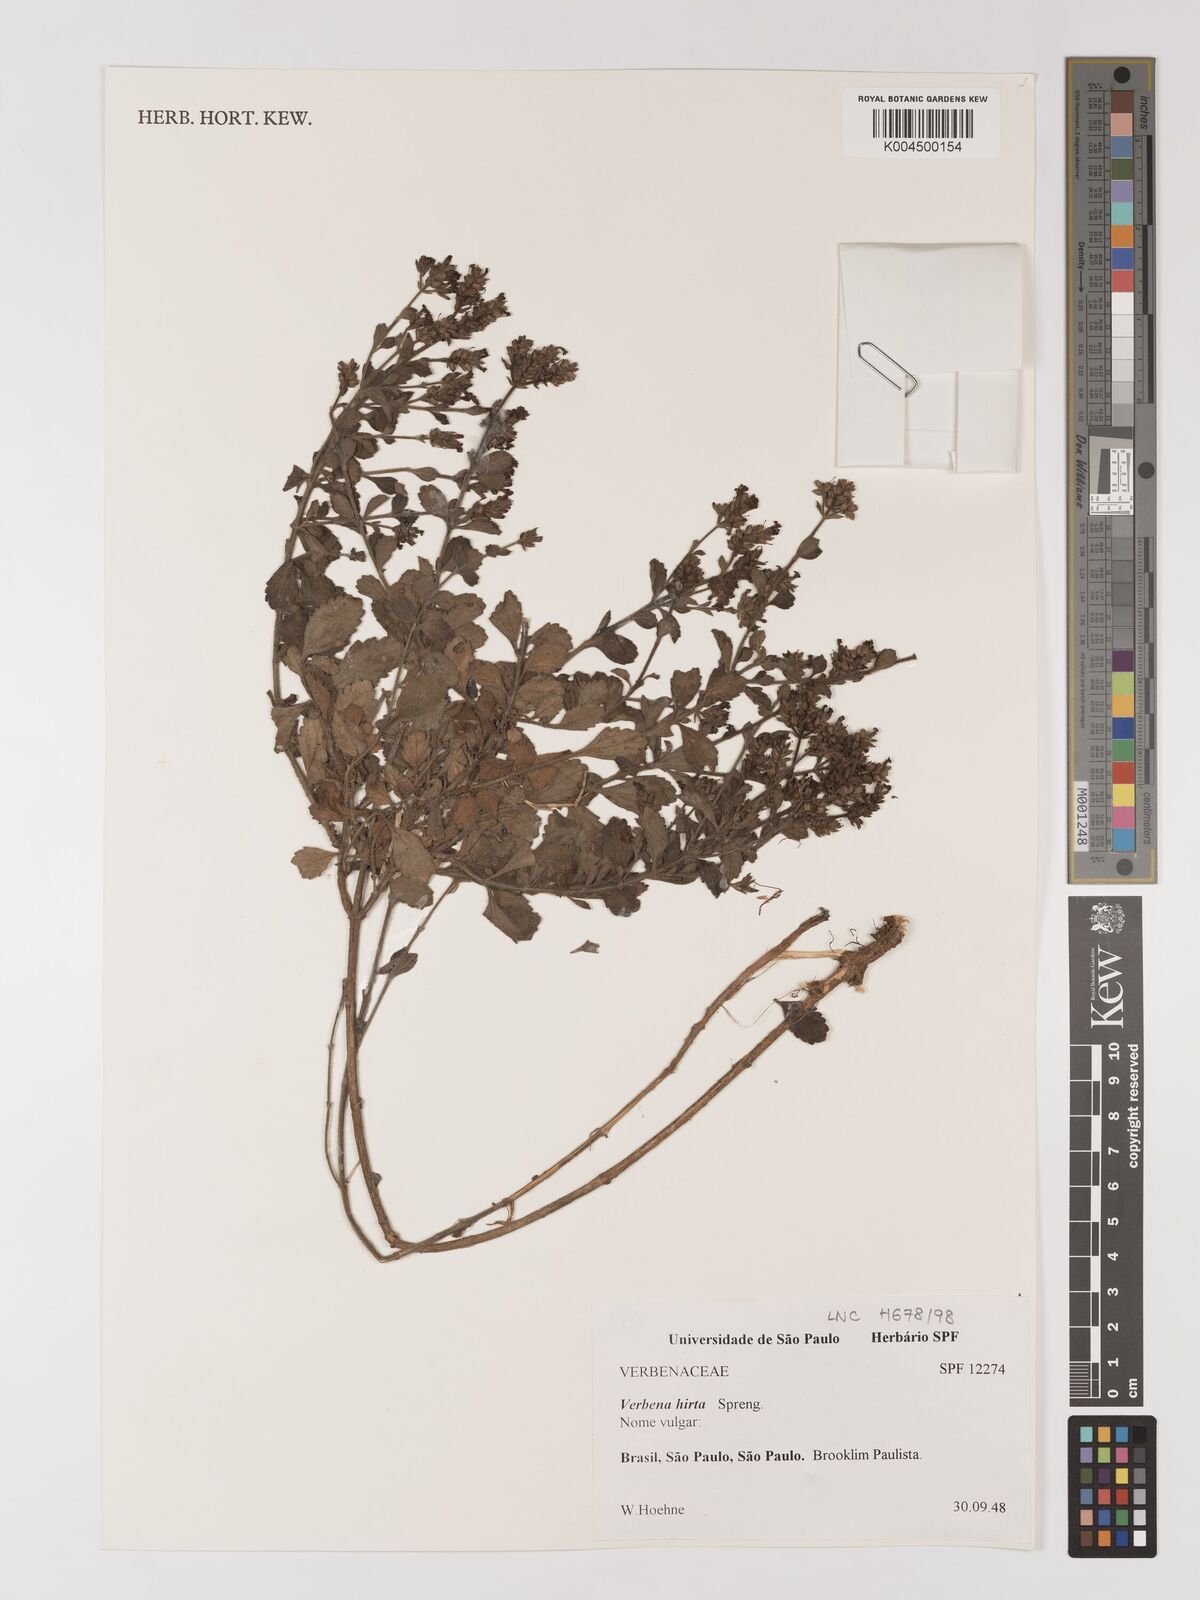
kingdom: Plantae
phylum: Tracheophyta
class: Magnoliopsida
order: Lamiales
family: Verbenaceae
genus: Verbena
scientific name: Verbena hirta
